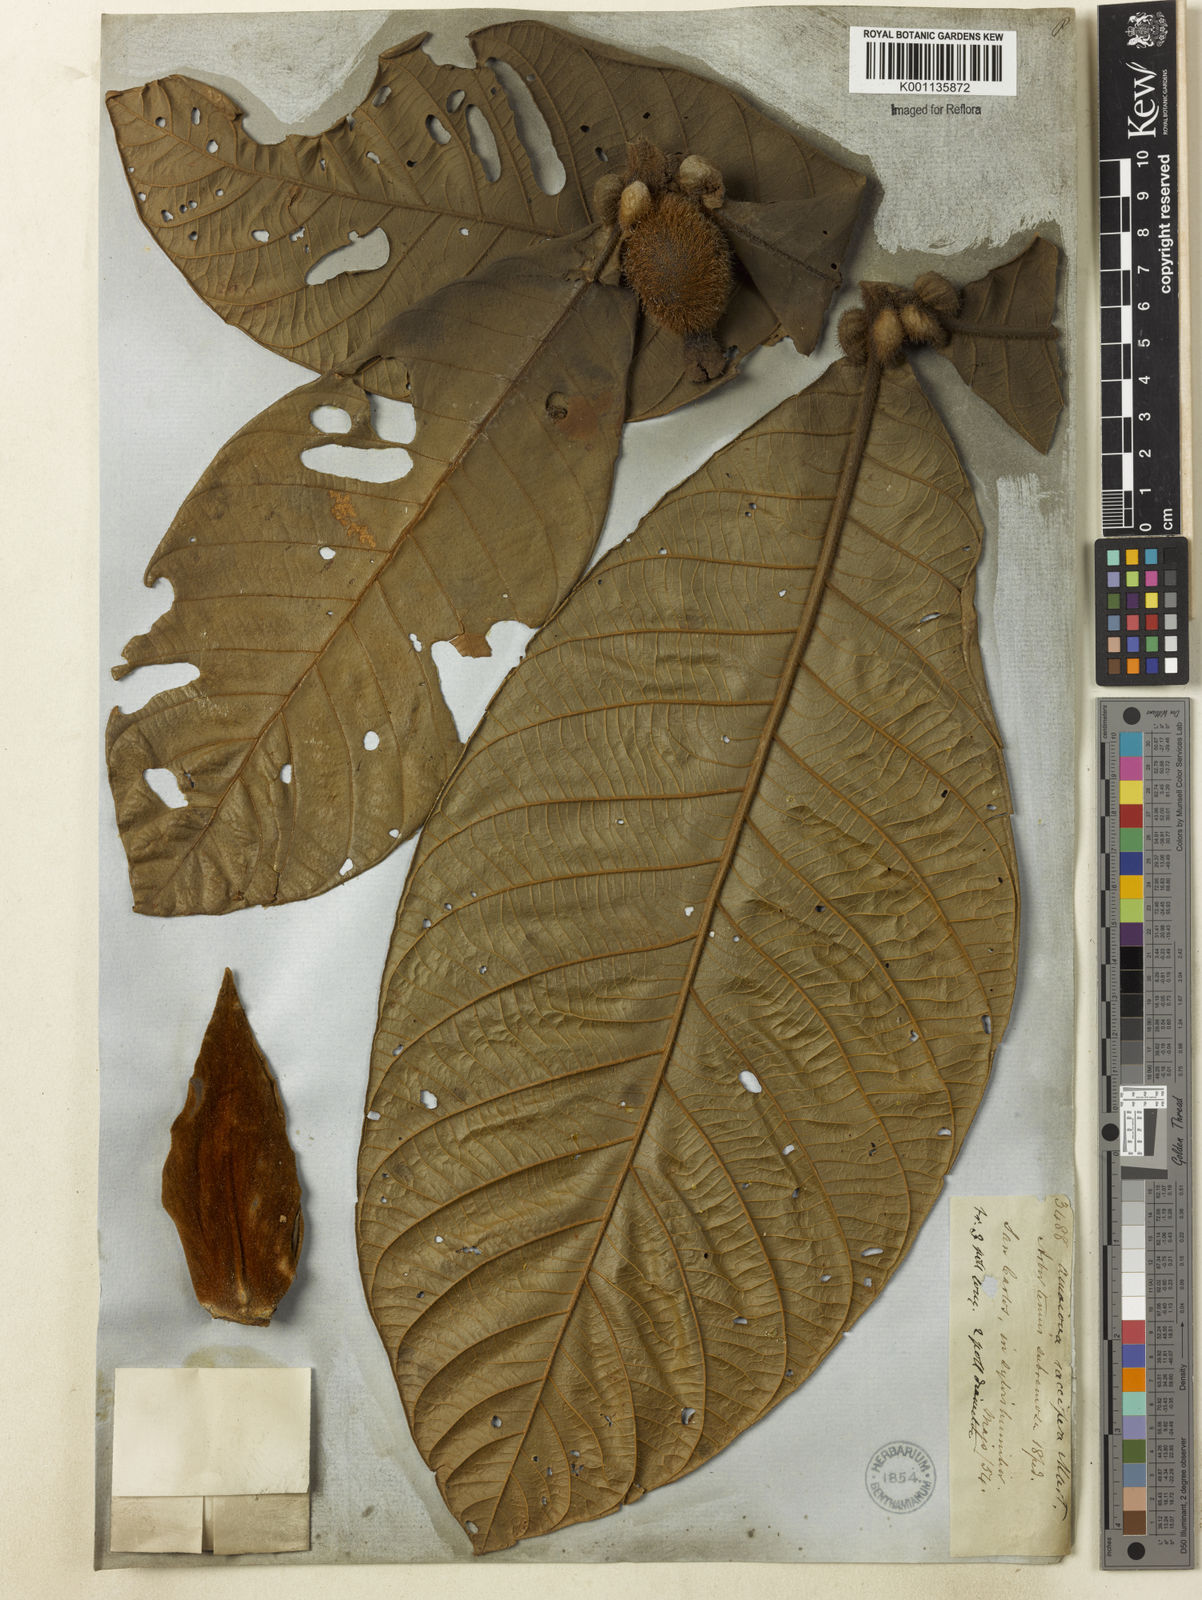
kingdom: Plantae
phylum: Tracheophyta
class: Magnoliopsida
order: Gentianales
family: Rubiaceae
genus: Duroia
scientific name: Duroia saccifera
